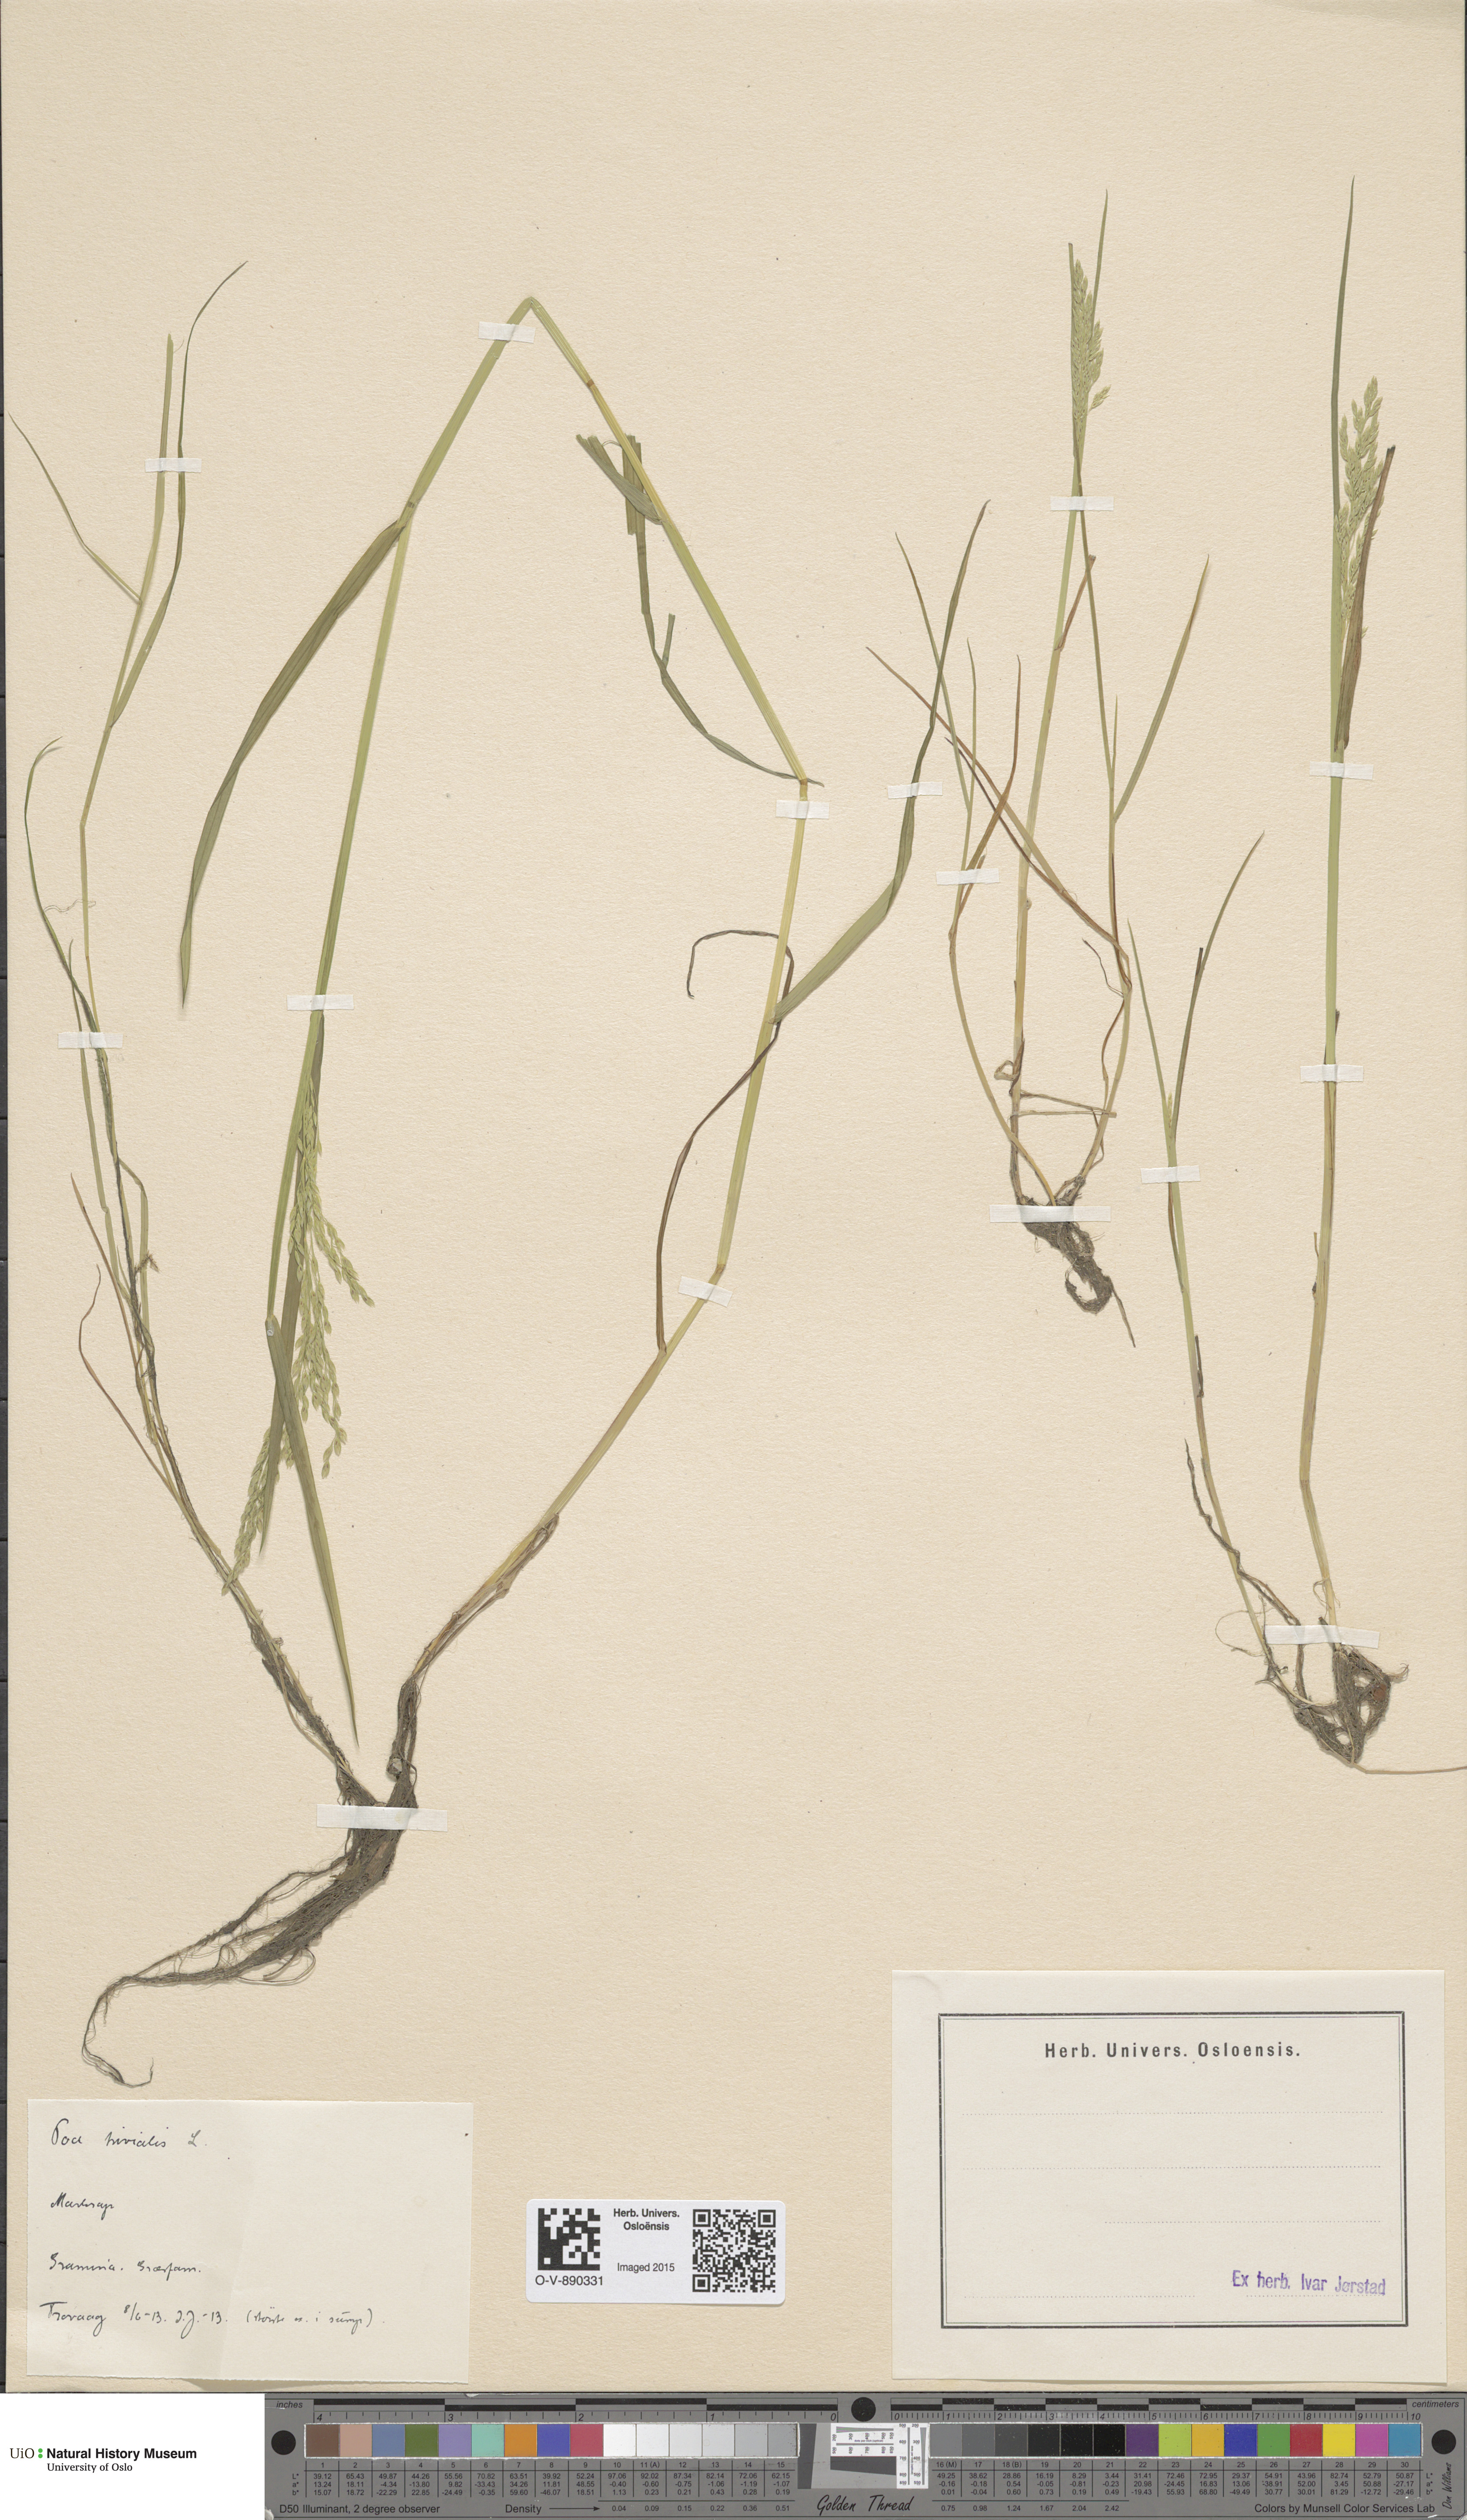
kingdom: Plantae
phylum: Tracheophyta
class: Liliopsida
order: Poales
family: Poaceae
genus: Poa
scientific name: Poa trivialis
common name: Rough bluegrass
